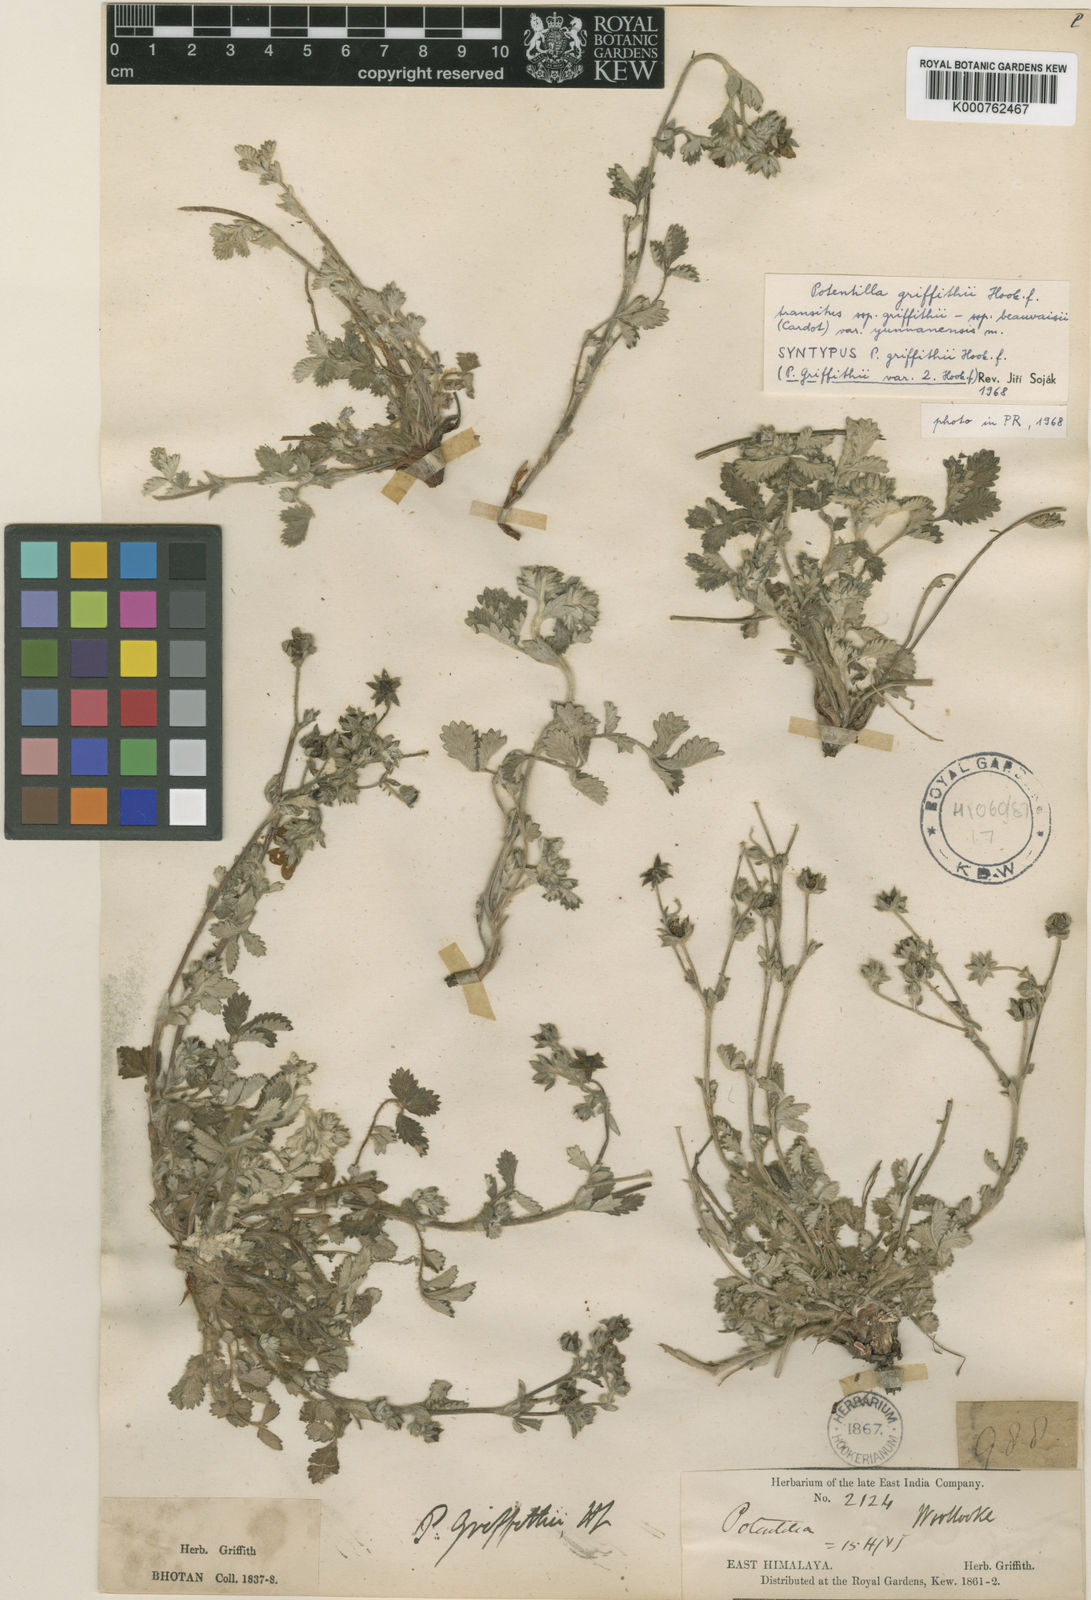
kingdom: Plantae
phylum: Tracheophyta
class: Magnoliopsida
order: Rosales
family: Rosaceae
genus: Potentilla
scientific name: Potentilla griffithii
